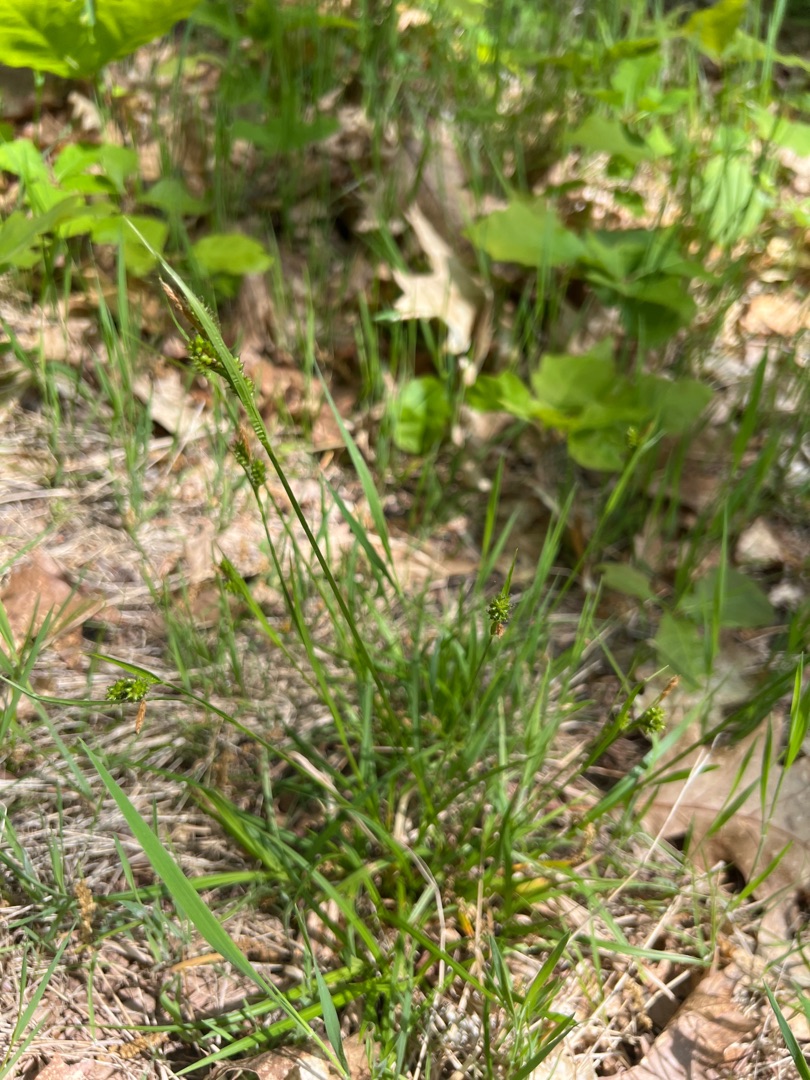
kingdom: Plantae
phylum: Tracheophyta
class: Liliopsida
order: Poales
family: Cyperaceae
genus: Carex
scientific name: Carex pallescens
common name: Bleg star
